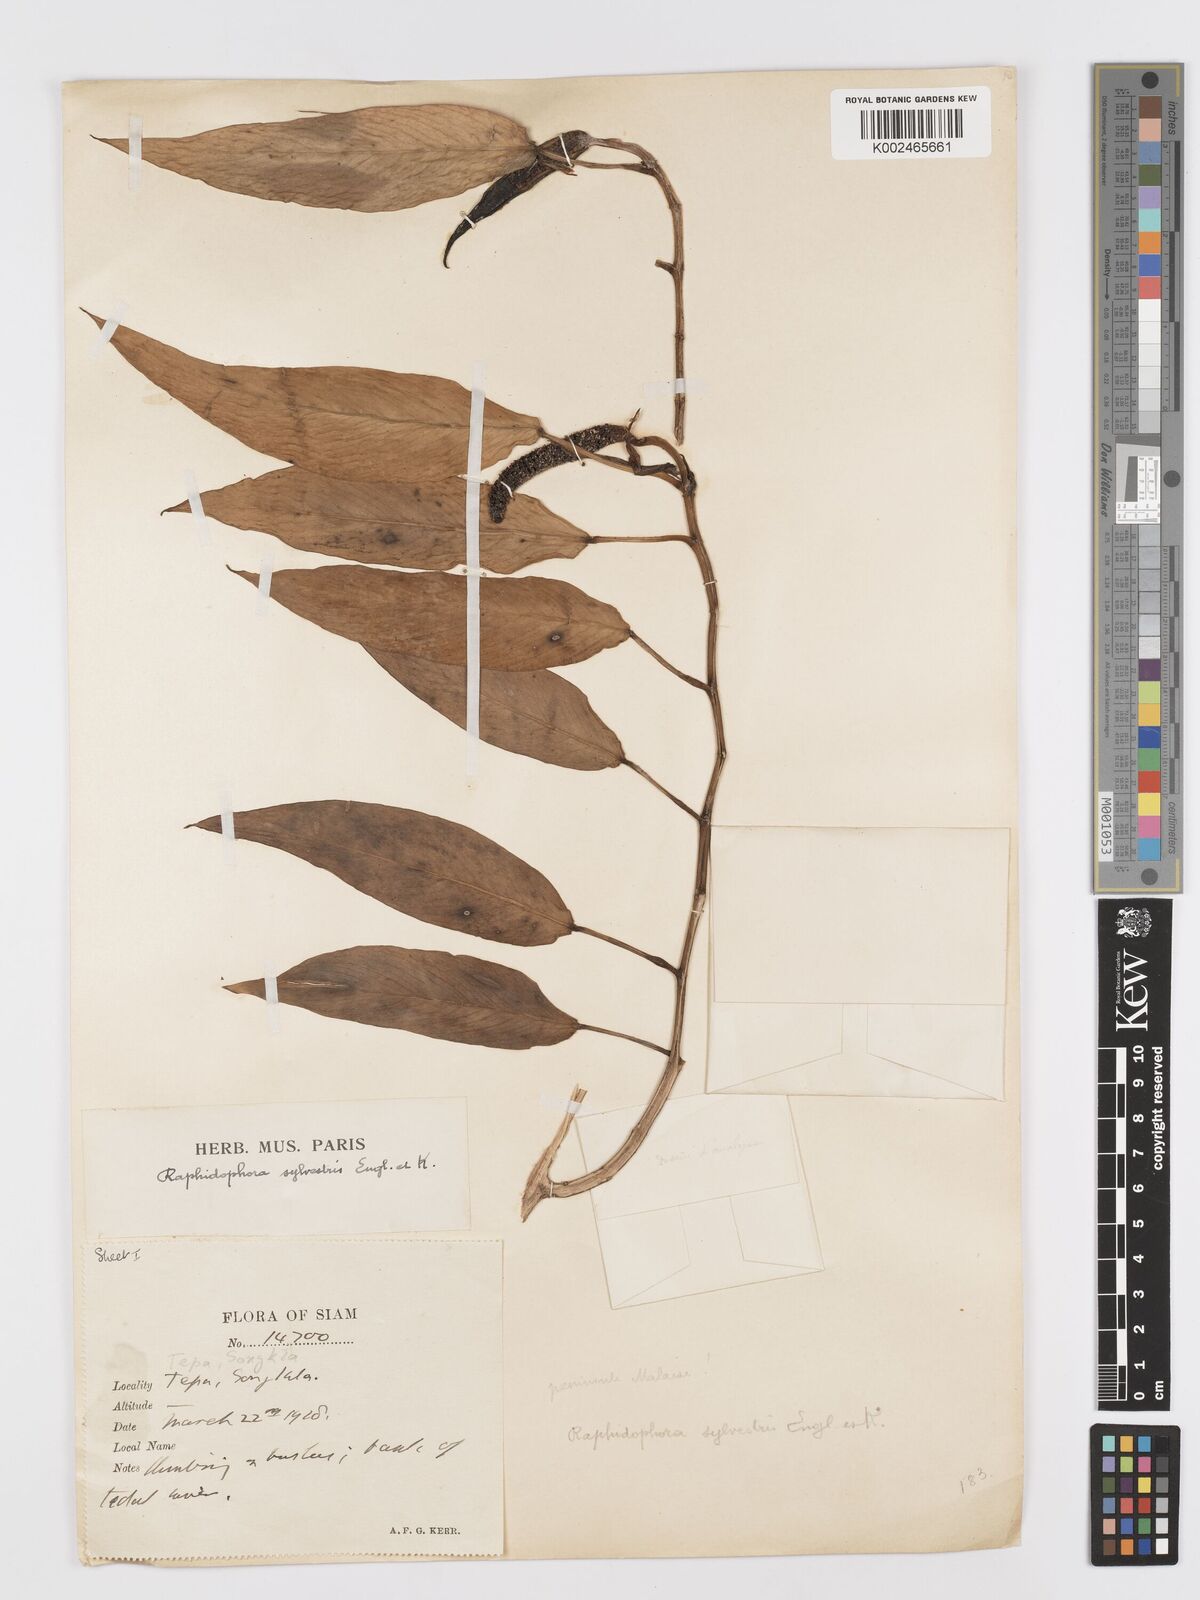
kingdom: Plantae
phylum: Tracheophyta
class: Liliopsida
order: Alismatales
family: Araceae
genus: Rhaphidophora
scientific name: Rhaphidophora minor
